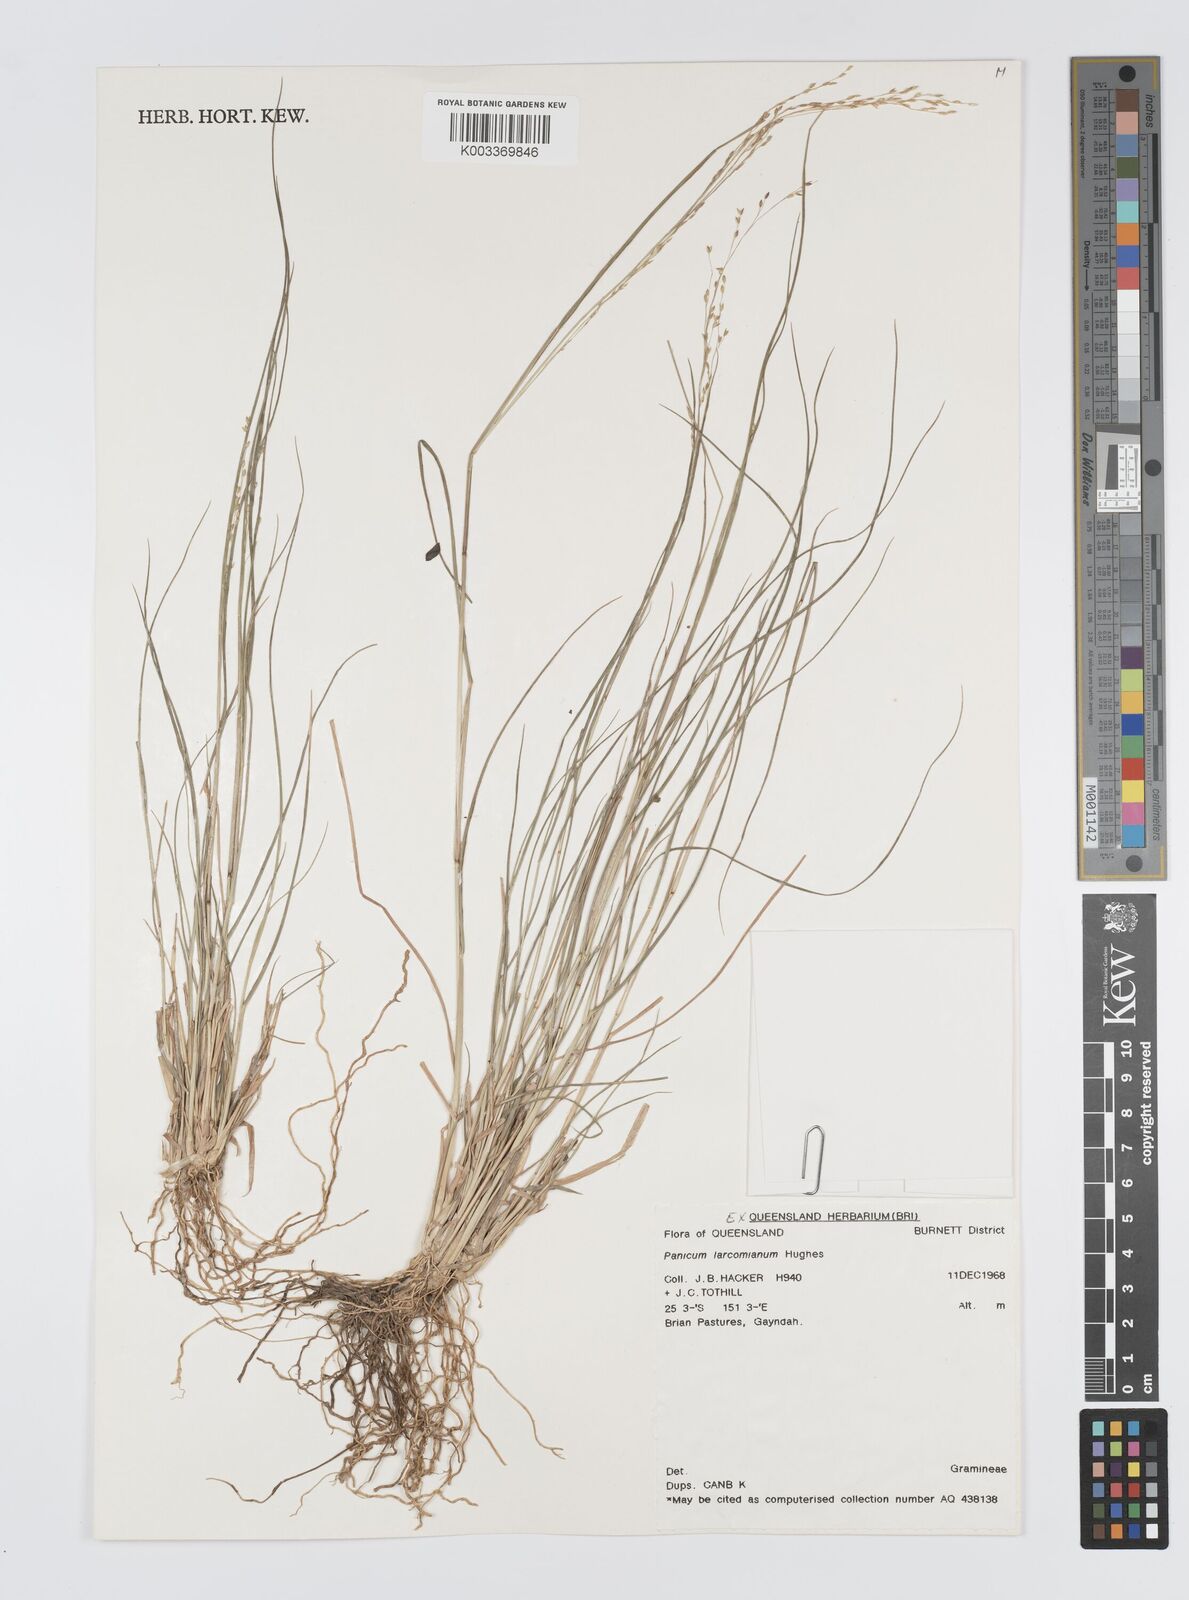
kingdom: Plantae
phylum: Tracheophyta
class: Liliopsida
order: Poales
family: Poaceae
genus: Panicum
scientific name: Panicum larcomianum
